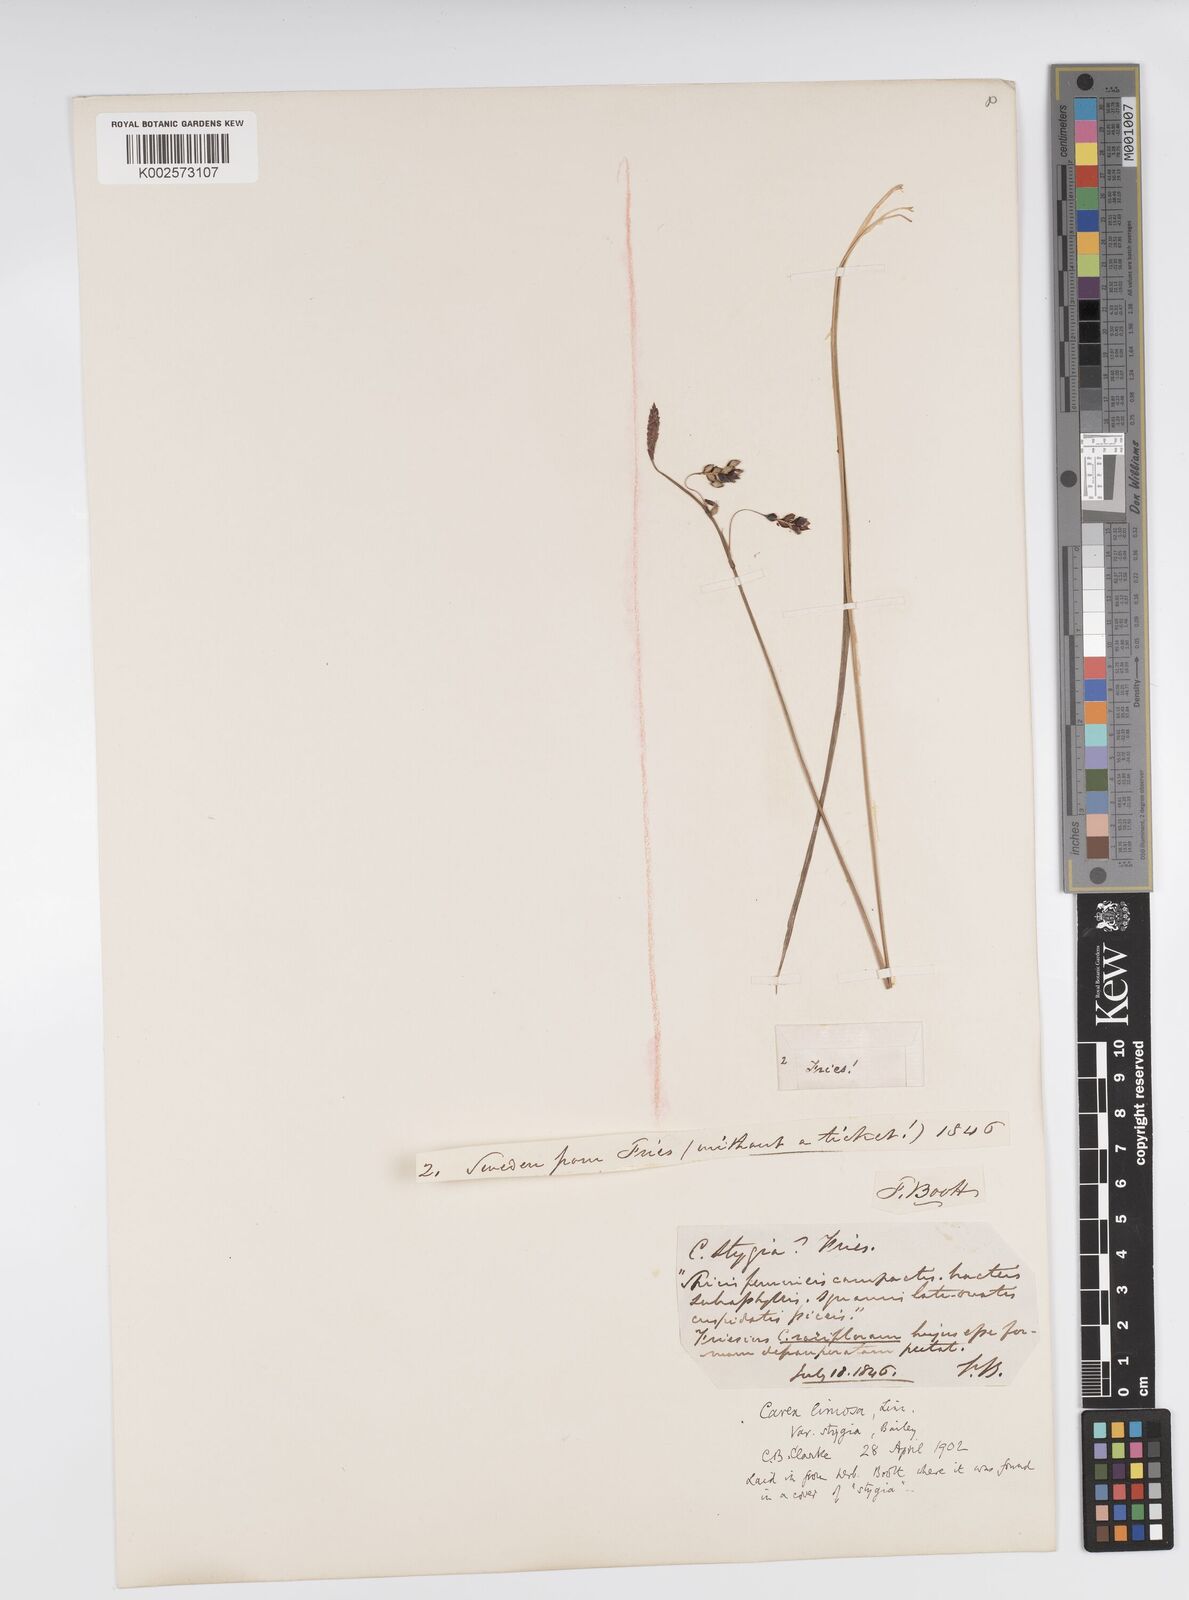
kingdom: Plantae
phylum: Tracheophyta
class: Liliopsida
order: Poales
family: Cyperaceae
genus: Carex
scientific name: Carex limosa
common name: Bog sedge
